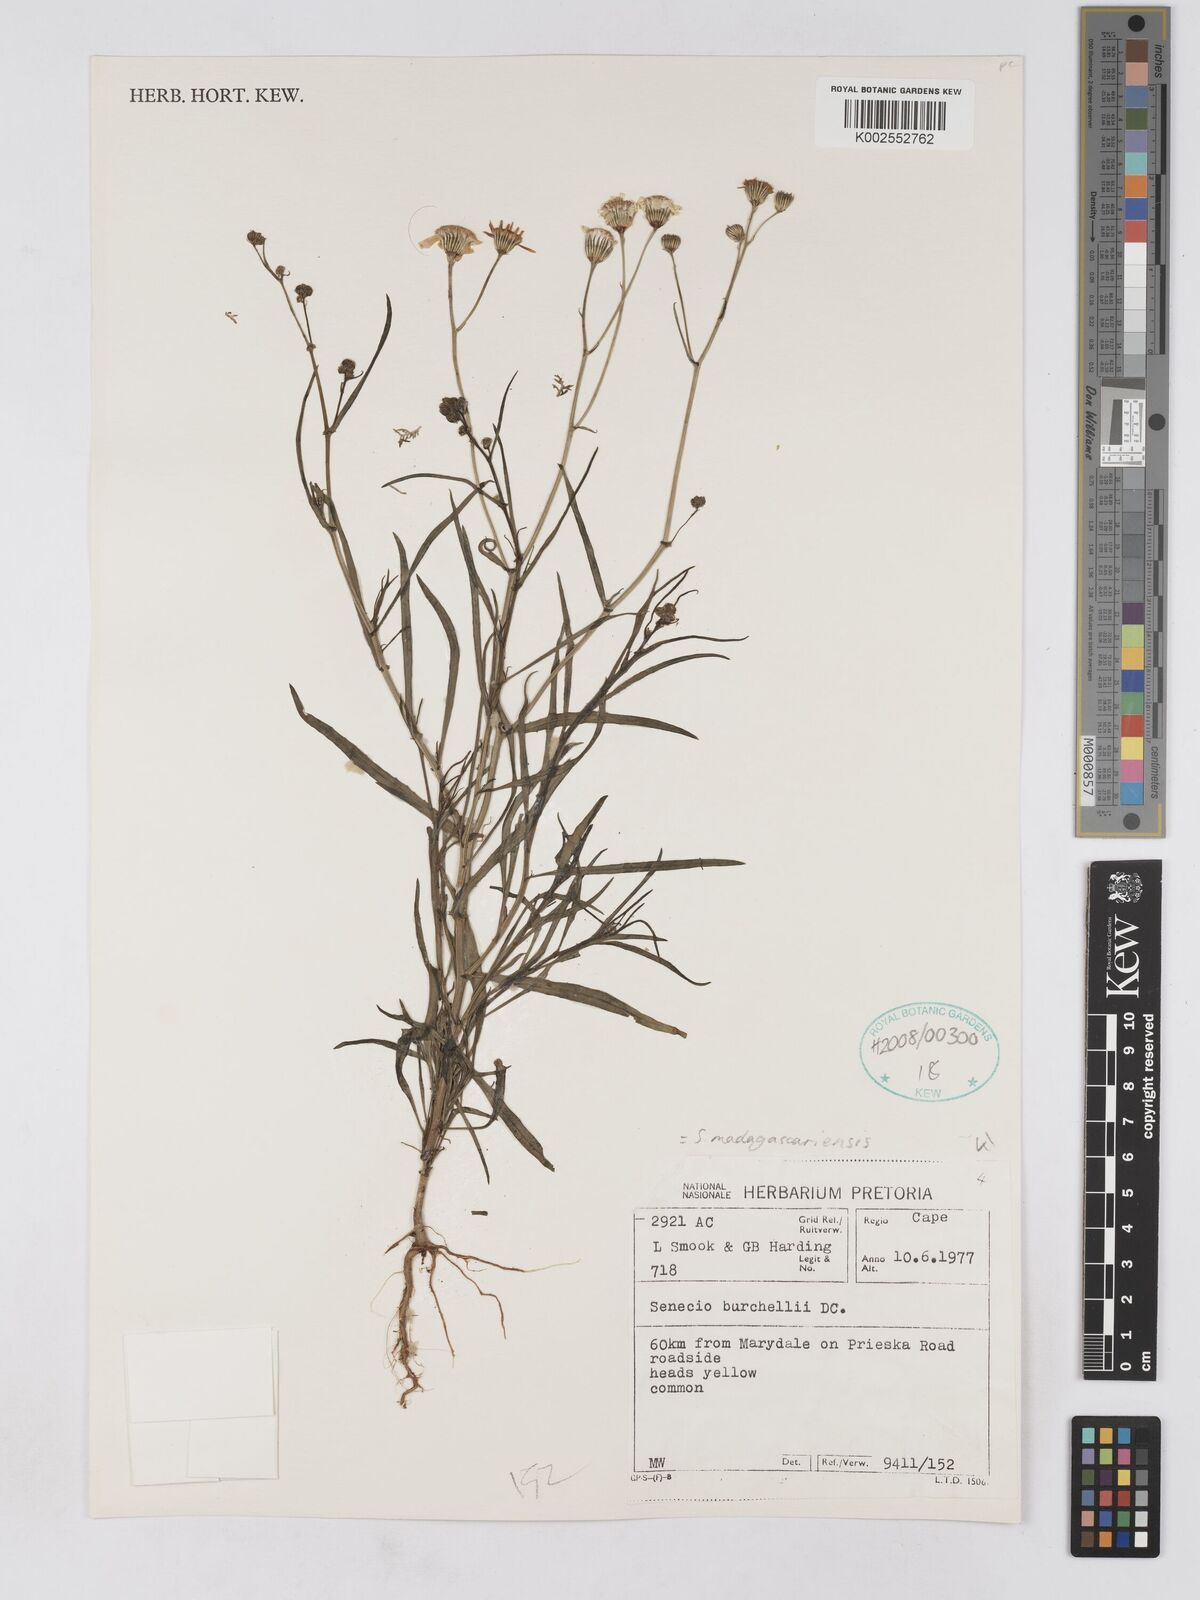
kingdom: Plantae
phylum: Tracheophyta
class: Magnoliopsida
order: Asterales
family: Asteraceae
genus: Senecio
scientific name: Senecio madagascariensis
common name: Madagascar ragwort
